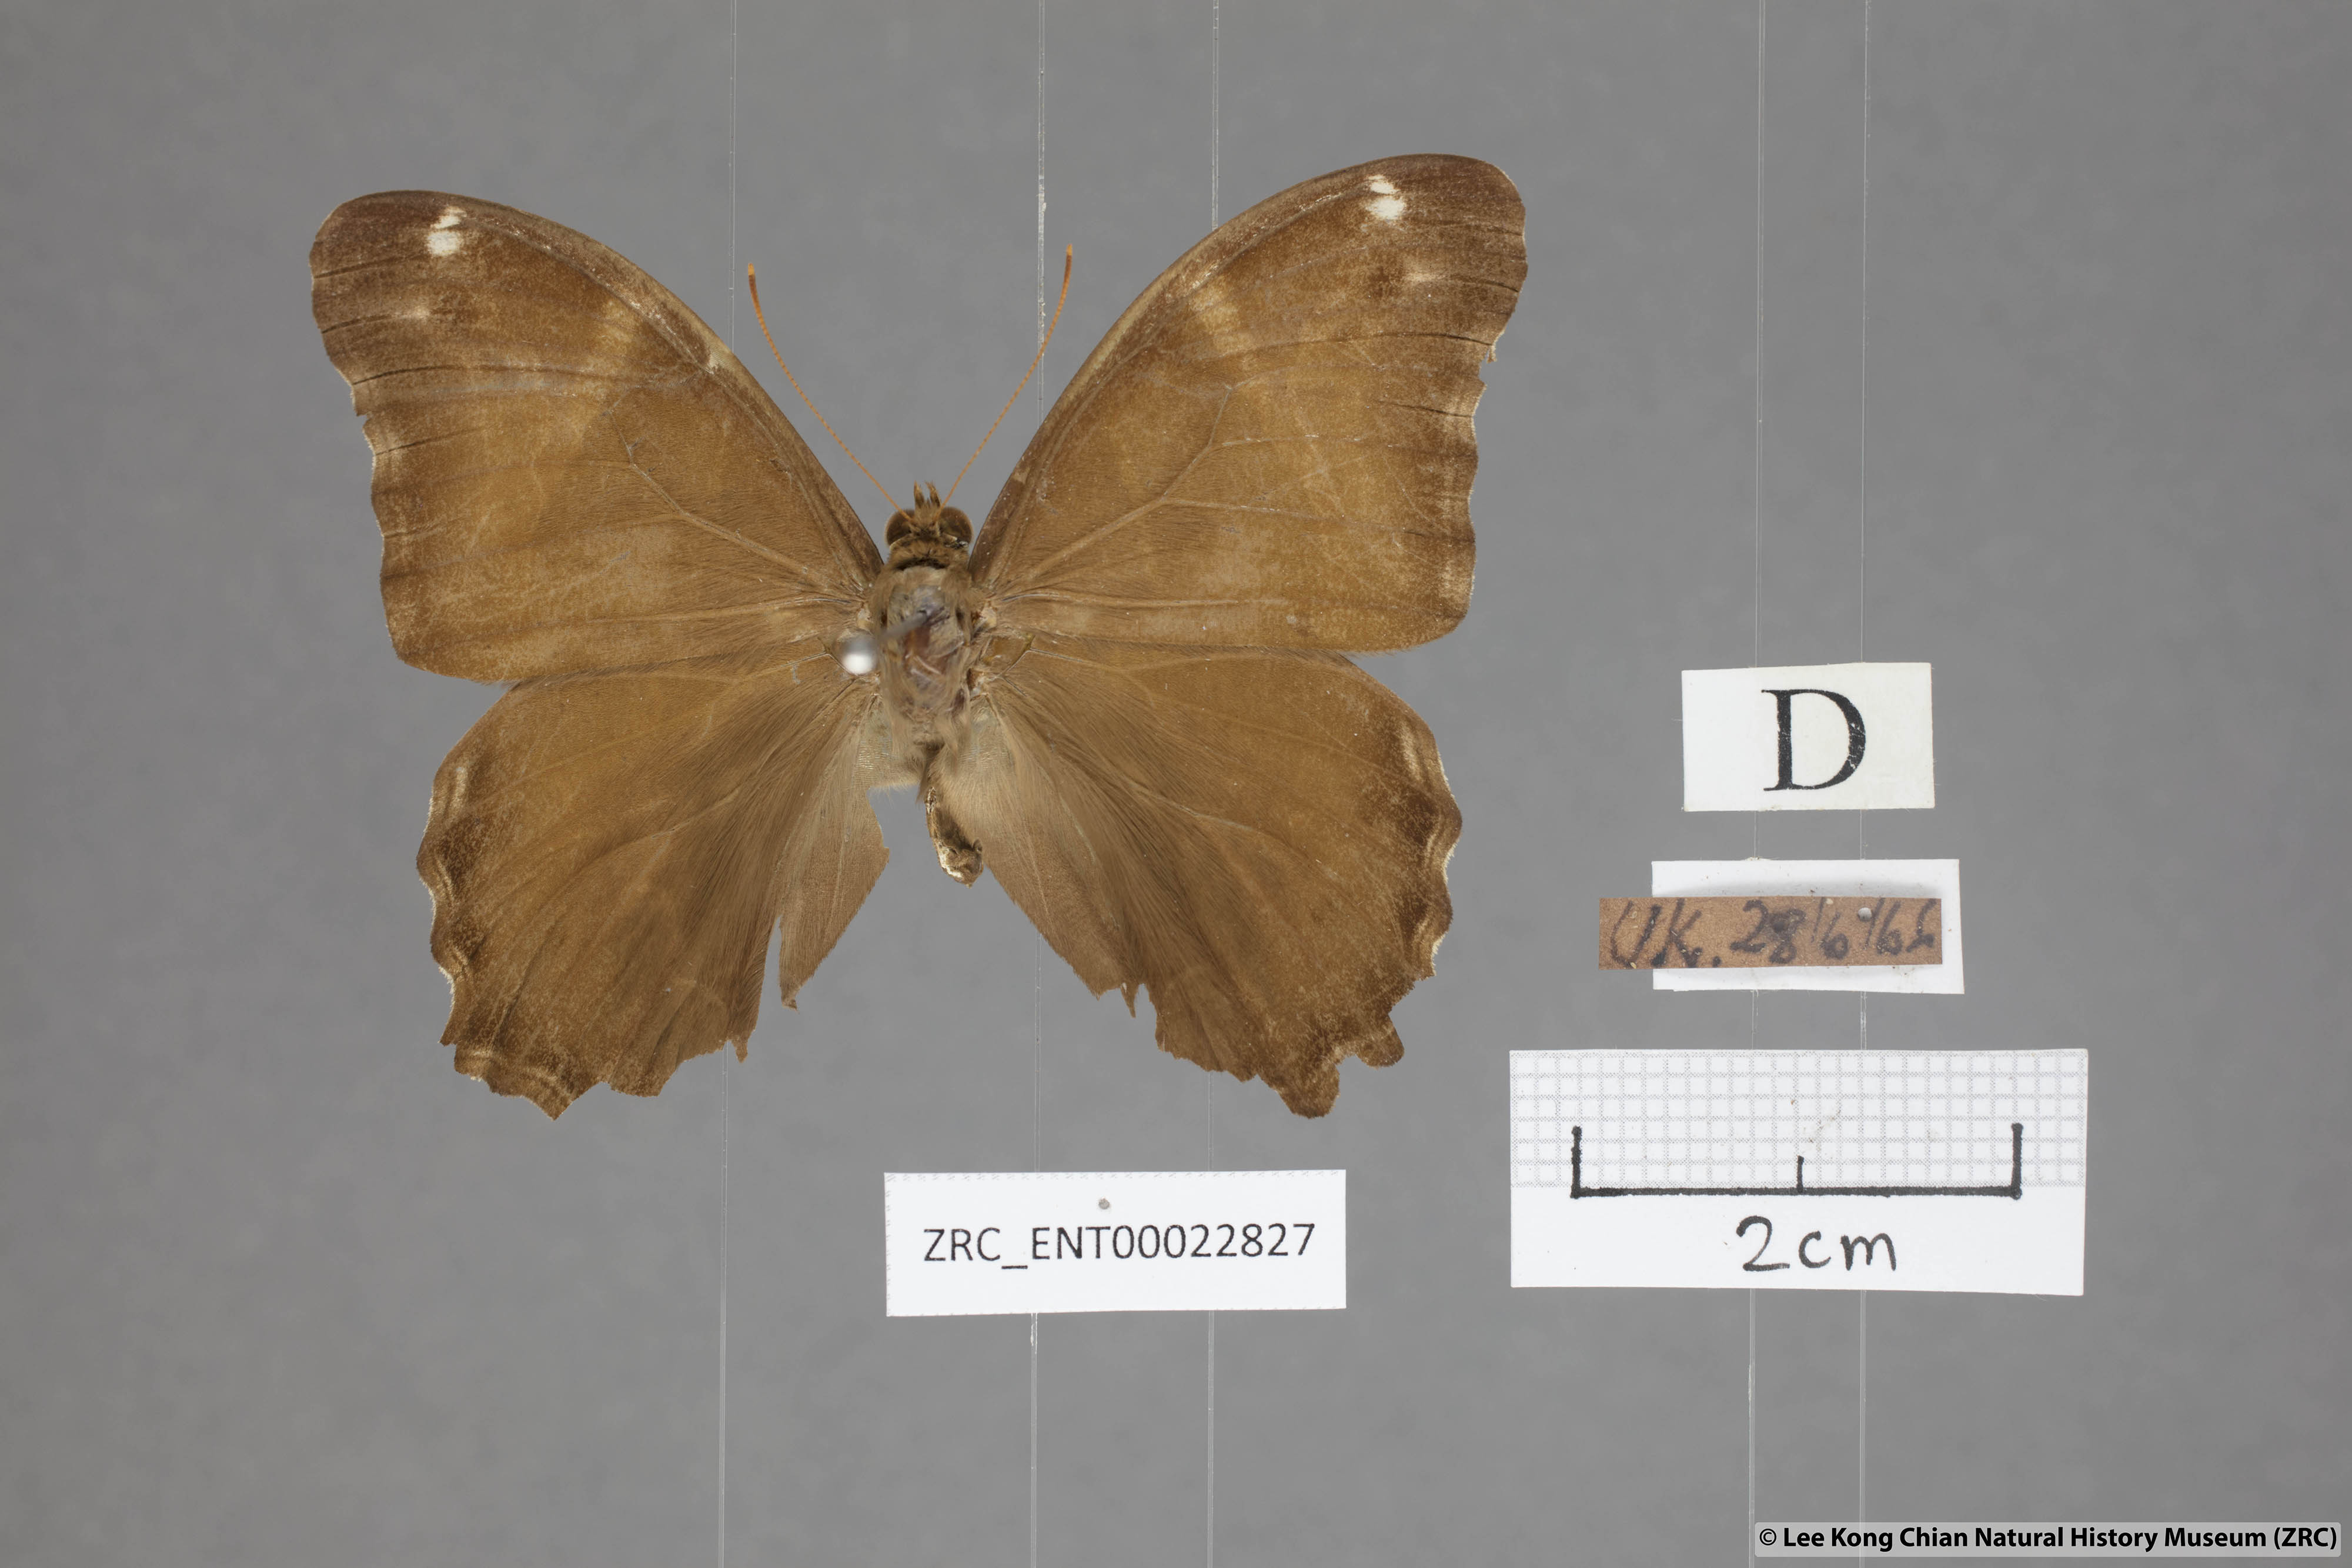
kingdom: Animalia
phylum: Arthropoda
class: Insecta
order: Lepidoptera
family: Nymphalidae
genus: Lethe
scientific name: Lethe europa
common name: Bamboo treebrown
